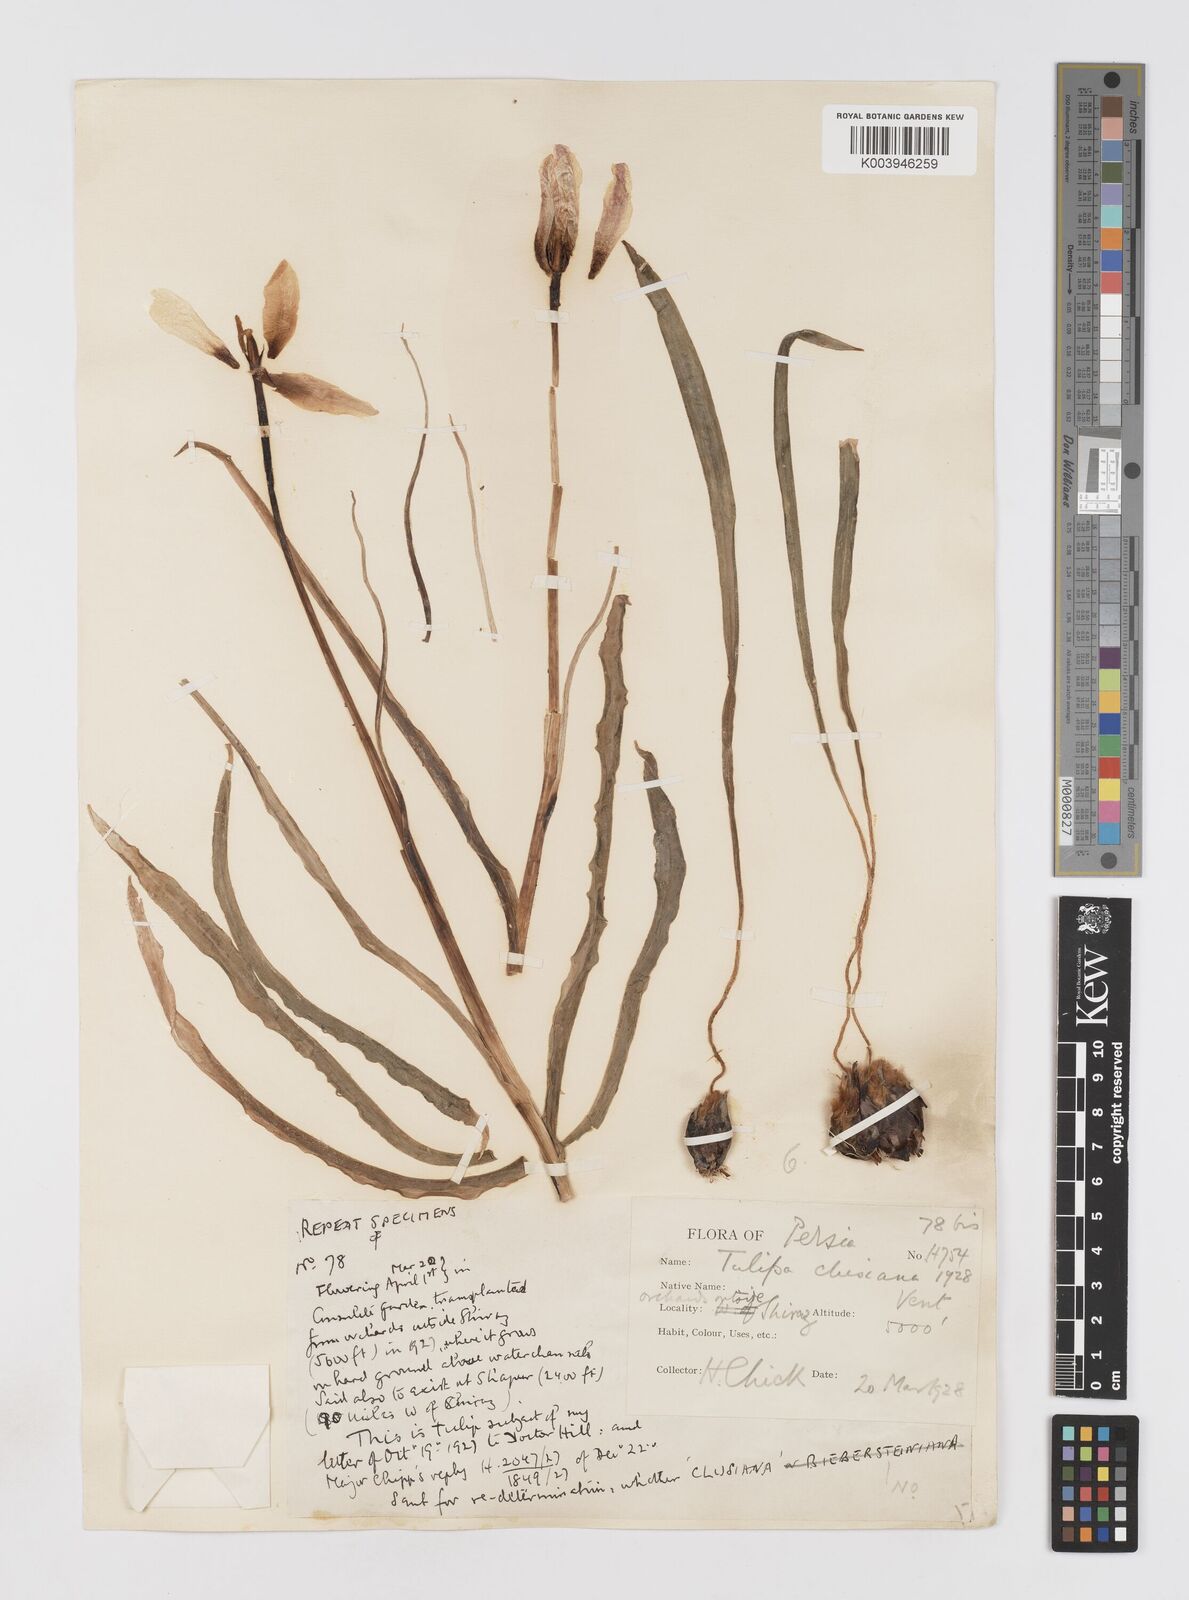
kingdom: Plantae
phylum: Tracheophyta
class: Liliopsida
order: Liliales
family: Liliaceae
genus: Tulipa
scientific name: Tulipa clusiana
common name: Lady tulip
